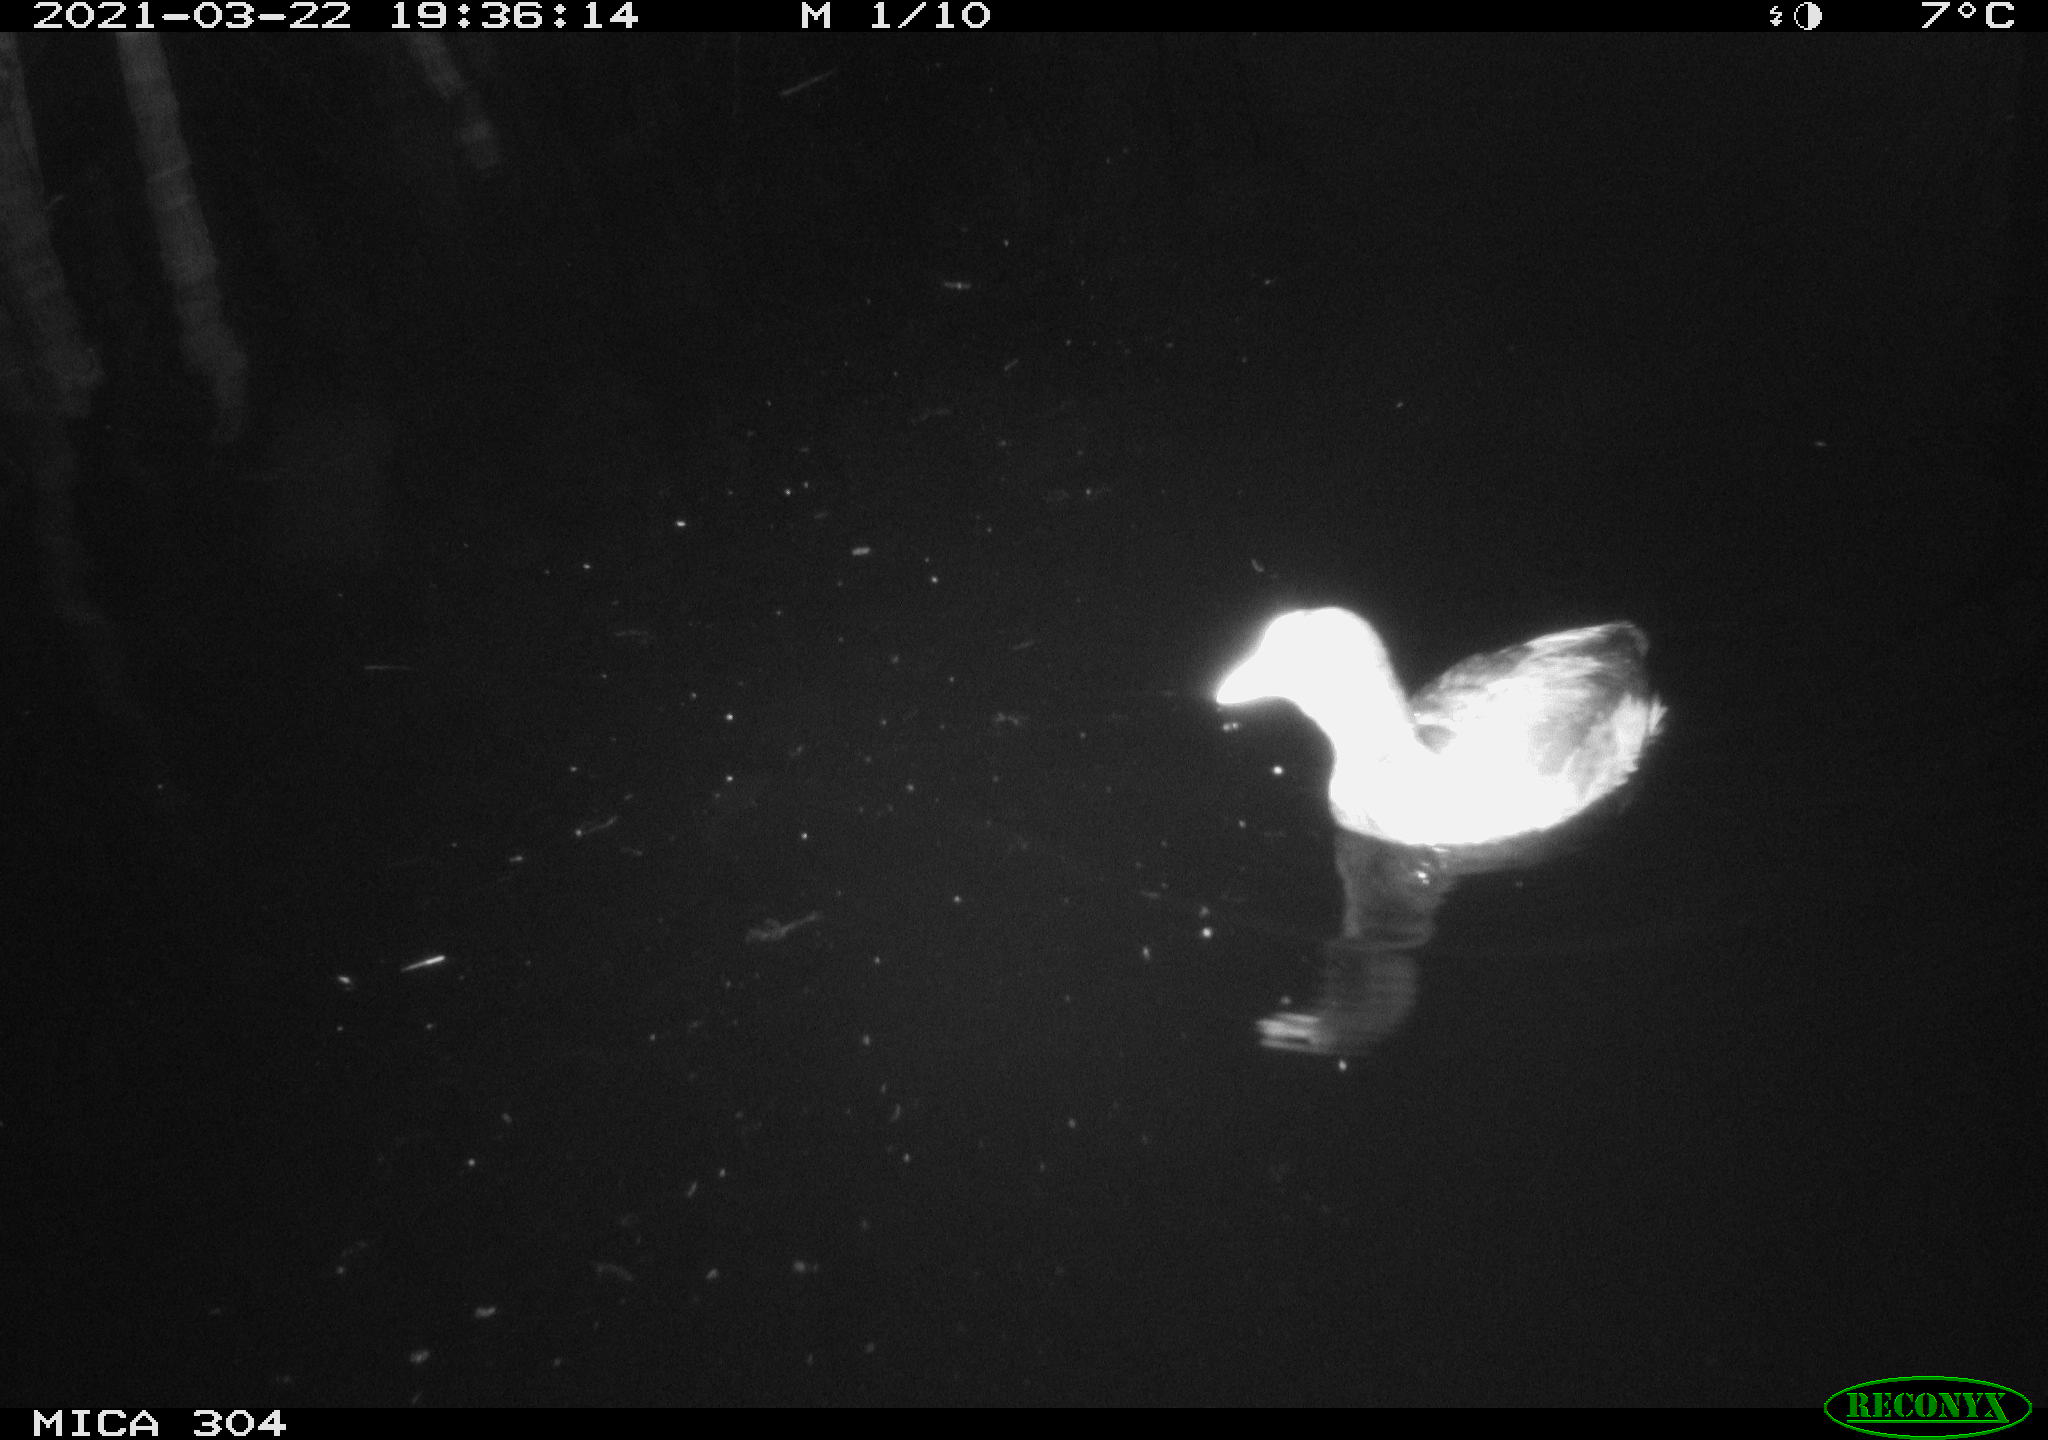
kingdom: Animalia
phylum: Chordata
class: Aves
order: Gruiformes
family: Rallidae
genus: Fulica
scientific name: Fulica atra
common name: Eurasian coot
